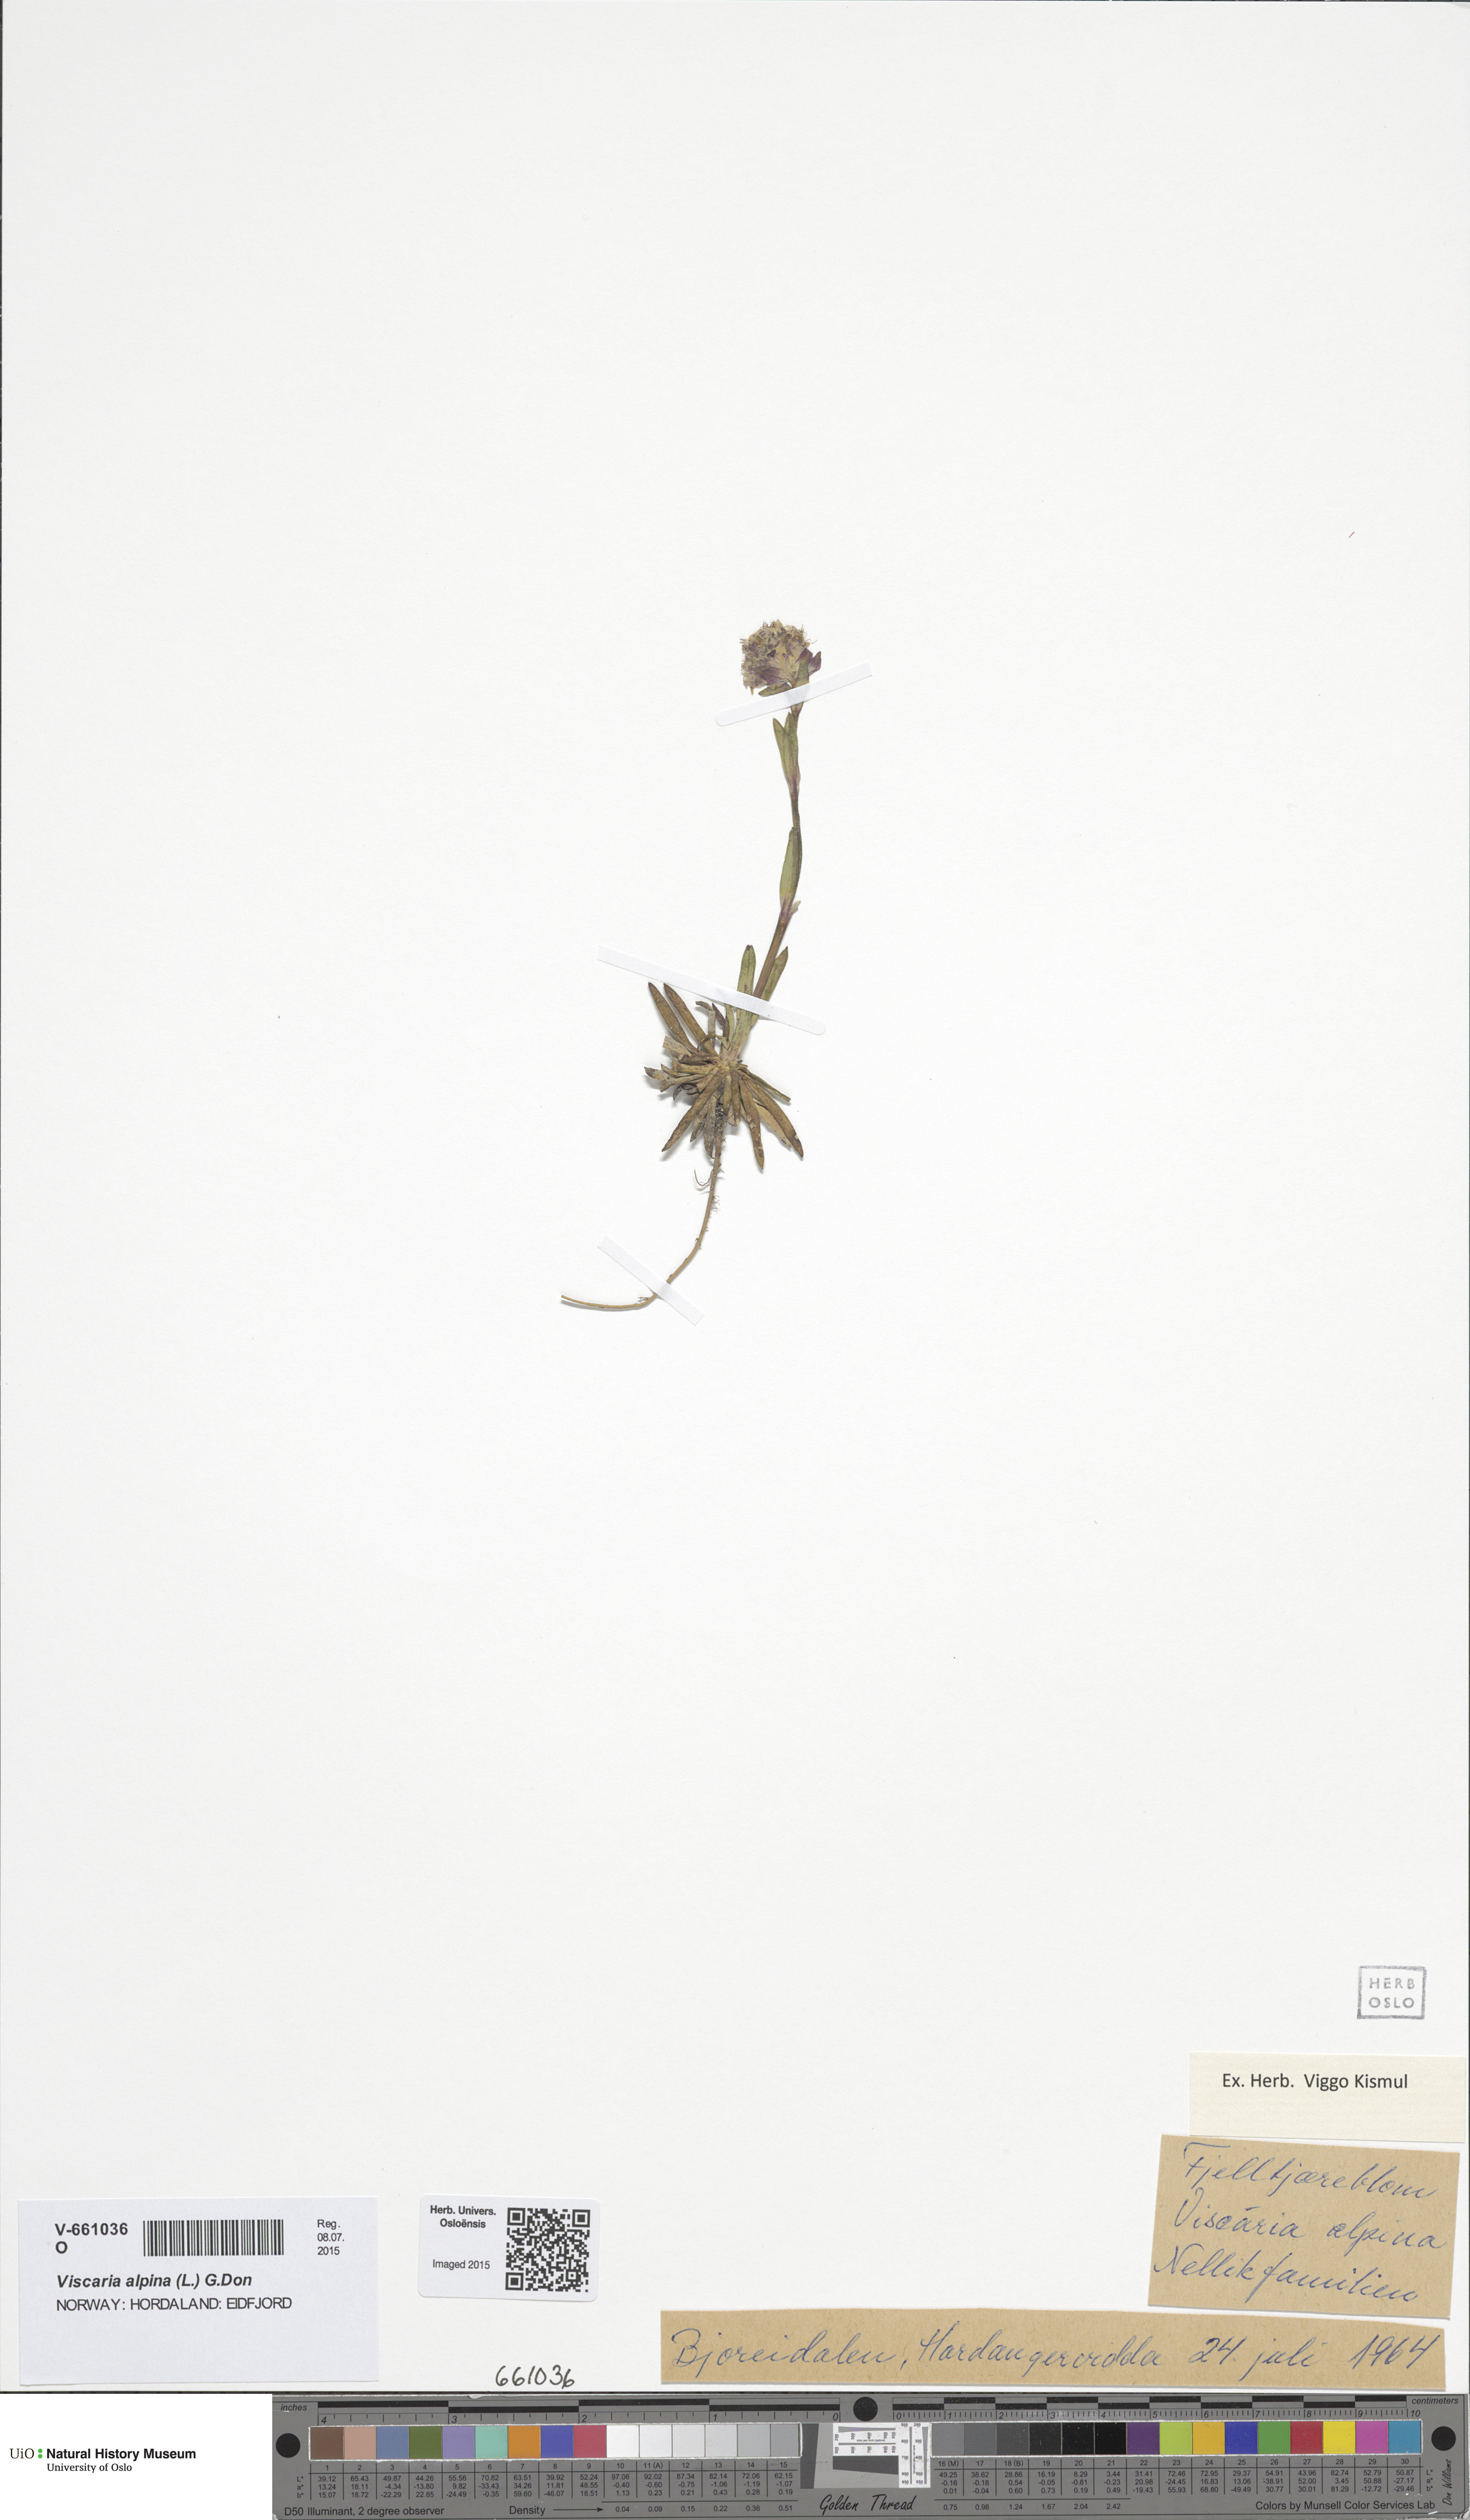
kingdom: Plantae
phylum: Tracheophyta
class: Magnoliopsida
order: Caryophyllales
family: Caryophyllaceae
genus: Viscaria
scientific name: Viscaria alpina
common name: Alpine campion
